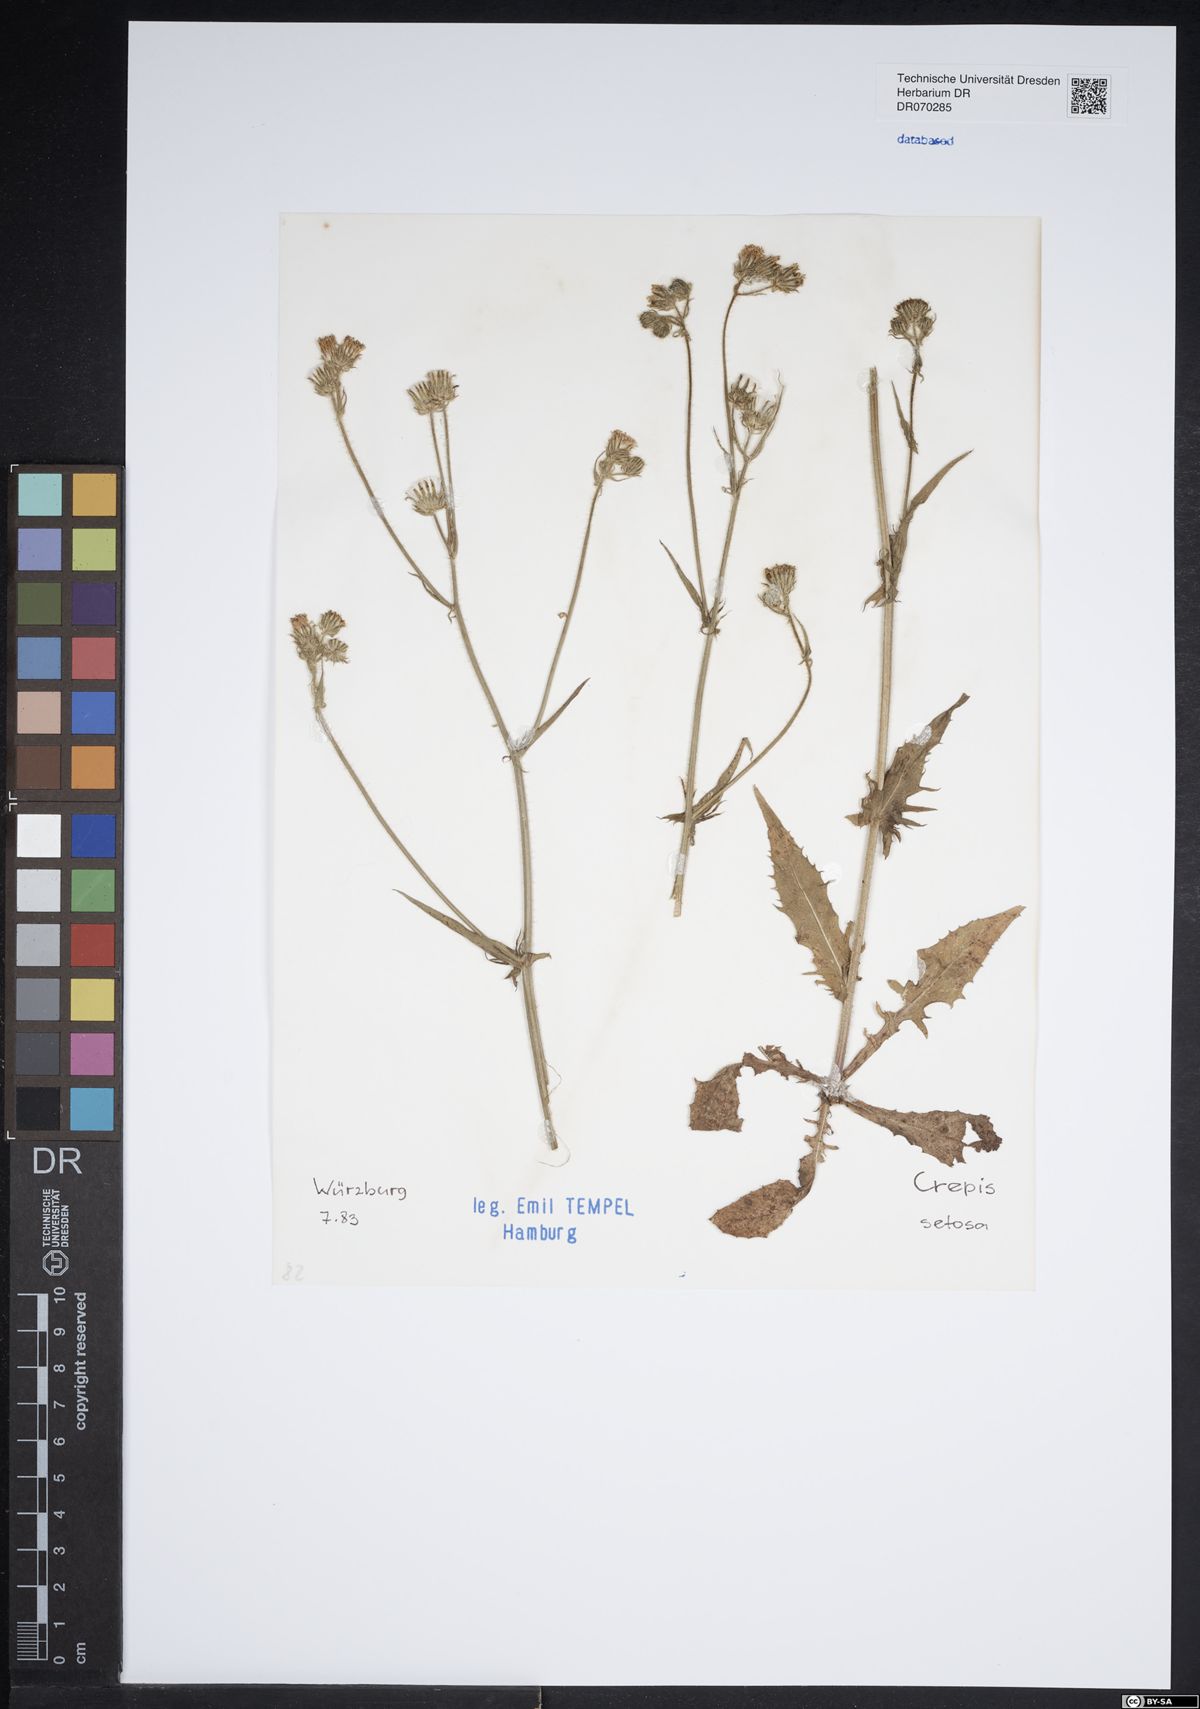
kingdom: Plantae
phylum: Tracheophyta
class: Magnoliopsida
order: Asterales
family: Asteraceae
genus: Crepis
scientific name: Crepis setosa
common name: Bristly hawk's-beard
